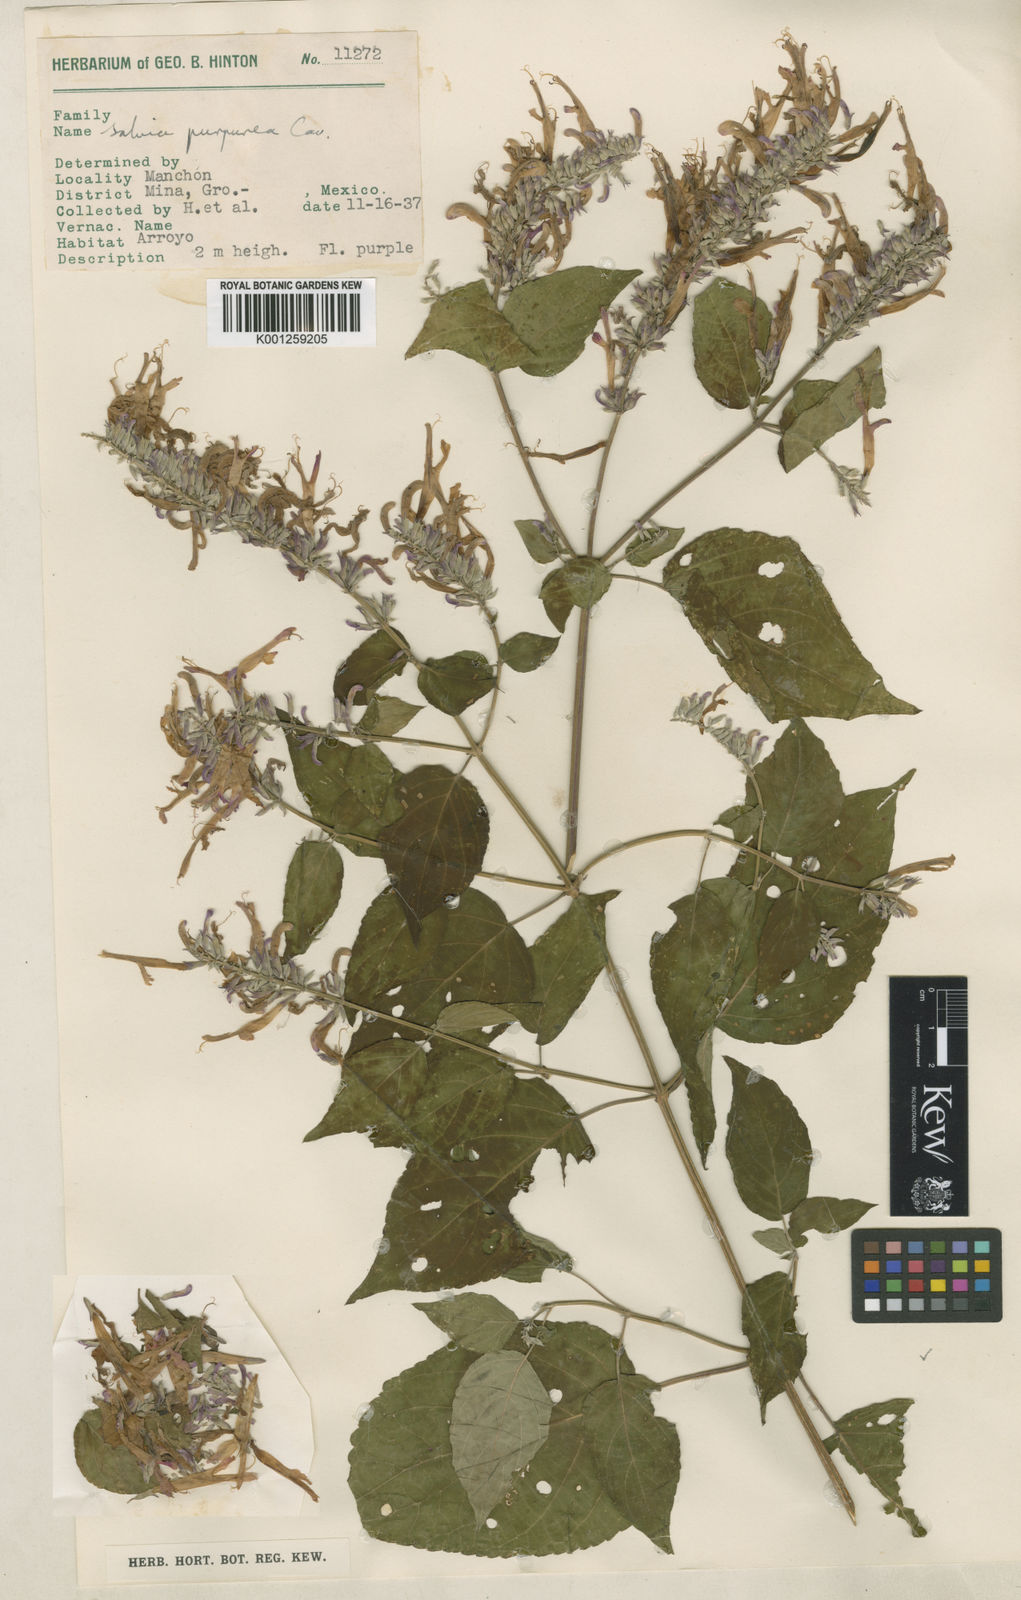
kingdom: Plantae
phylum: Tracheophyta
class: Magnoliopsida
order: Lamiales
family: Lamiaceae
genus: Salvia
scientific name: Salvia
